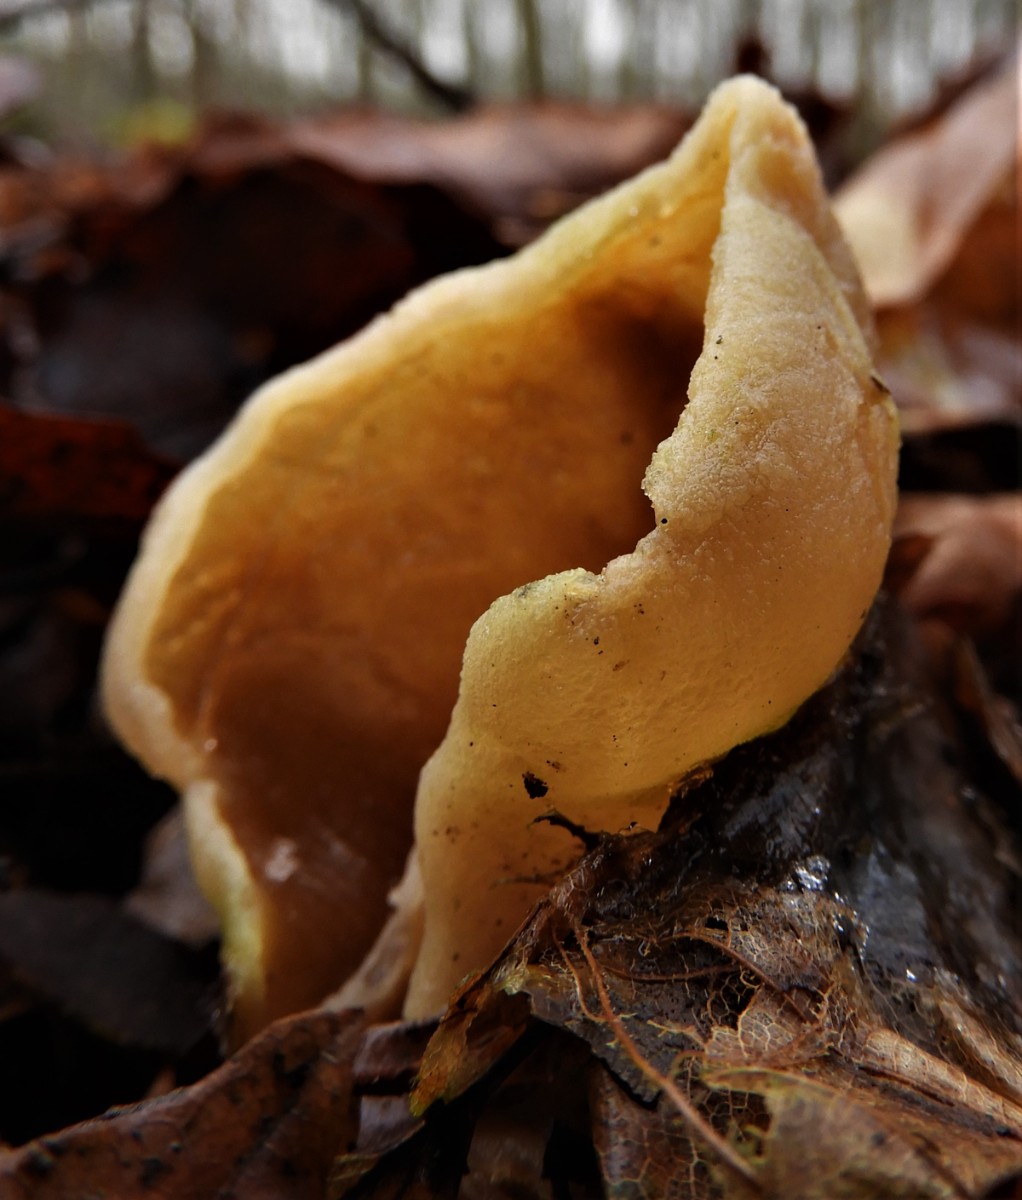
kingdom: Fungi
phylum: Ascomycota
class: Pezizomycetes
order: Pezizales
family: Otideaceae
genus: Otidea
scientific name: Otidea
